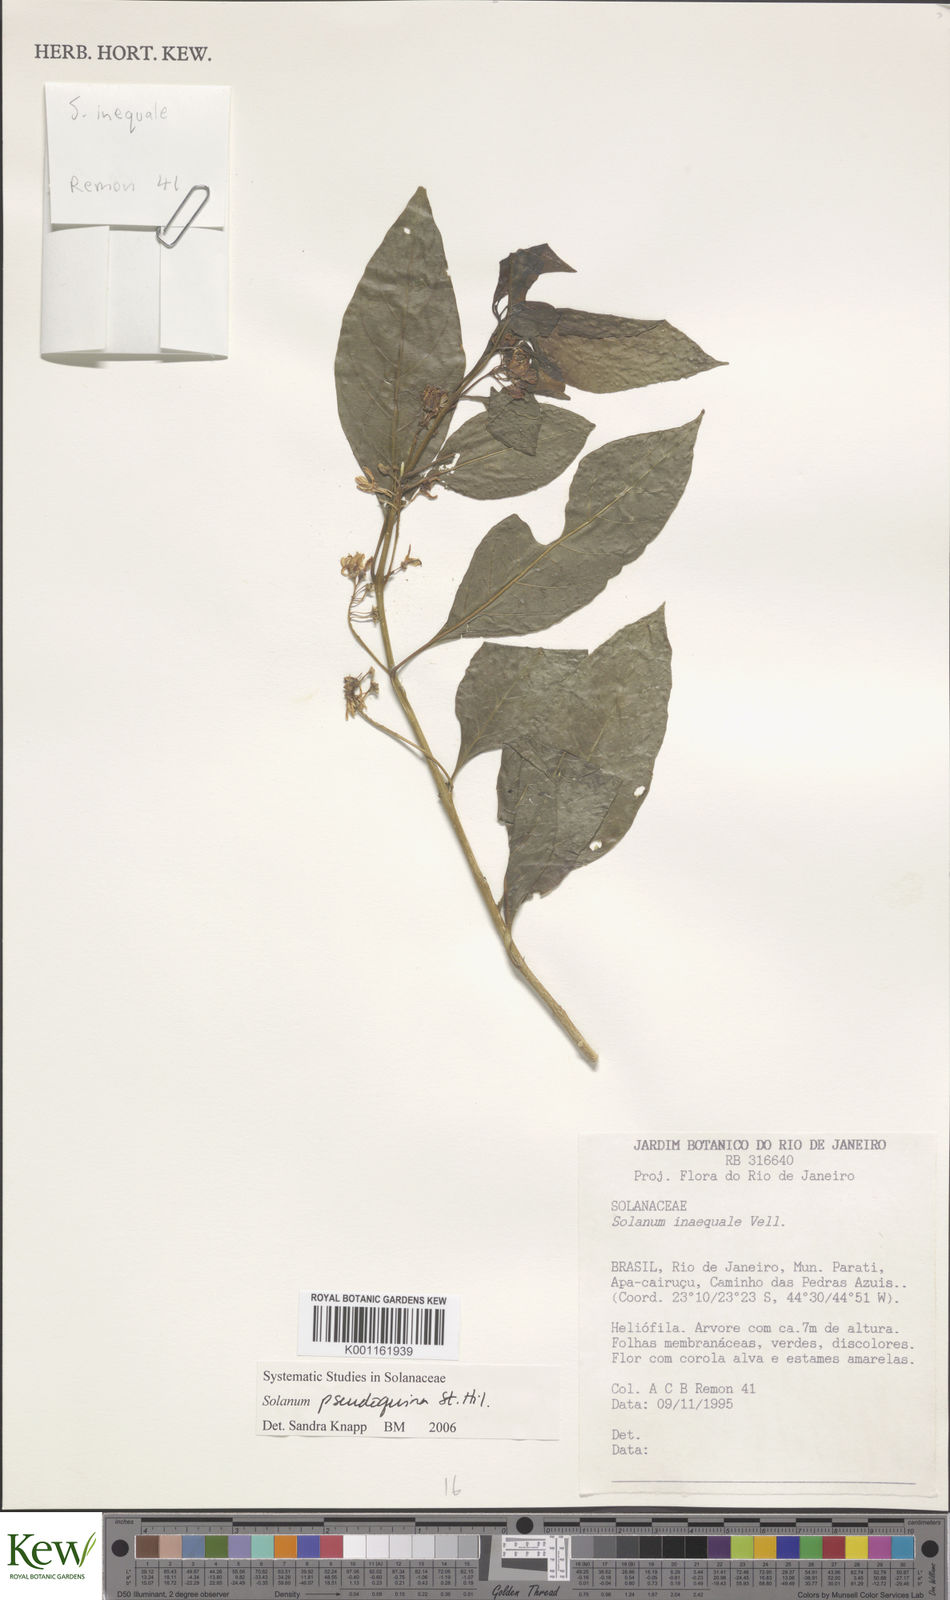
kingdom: Plantae
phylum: Tracheophyta
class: Magnoliopsida
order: Solanales
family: Solanaceae
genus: Solanum
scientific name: Solanum pseudoquina
